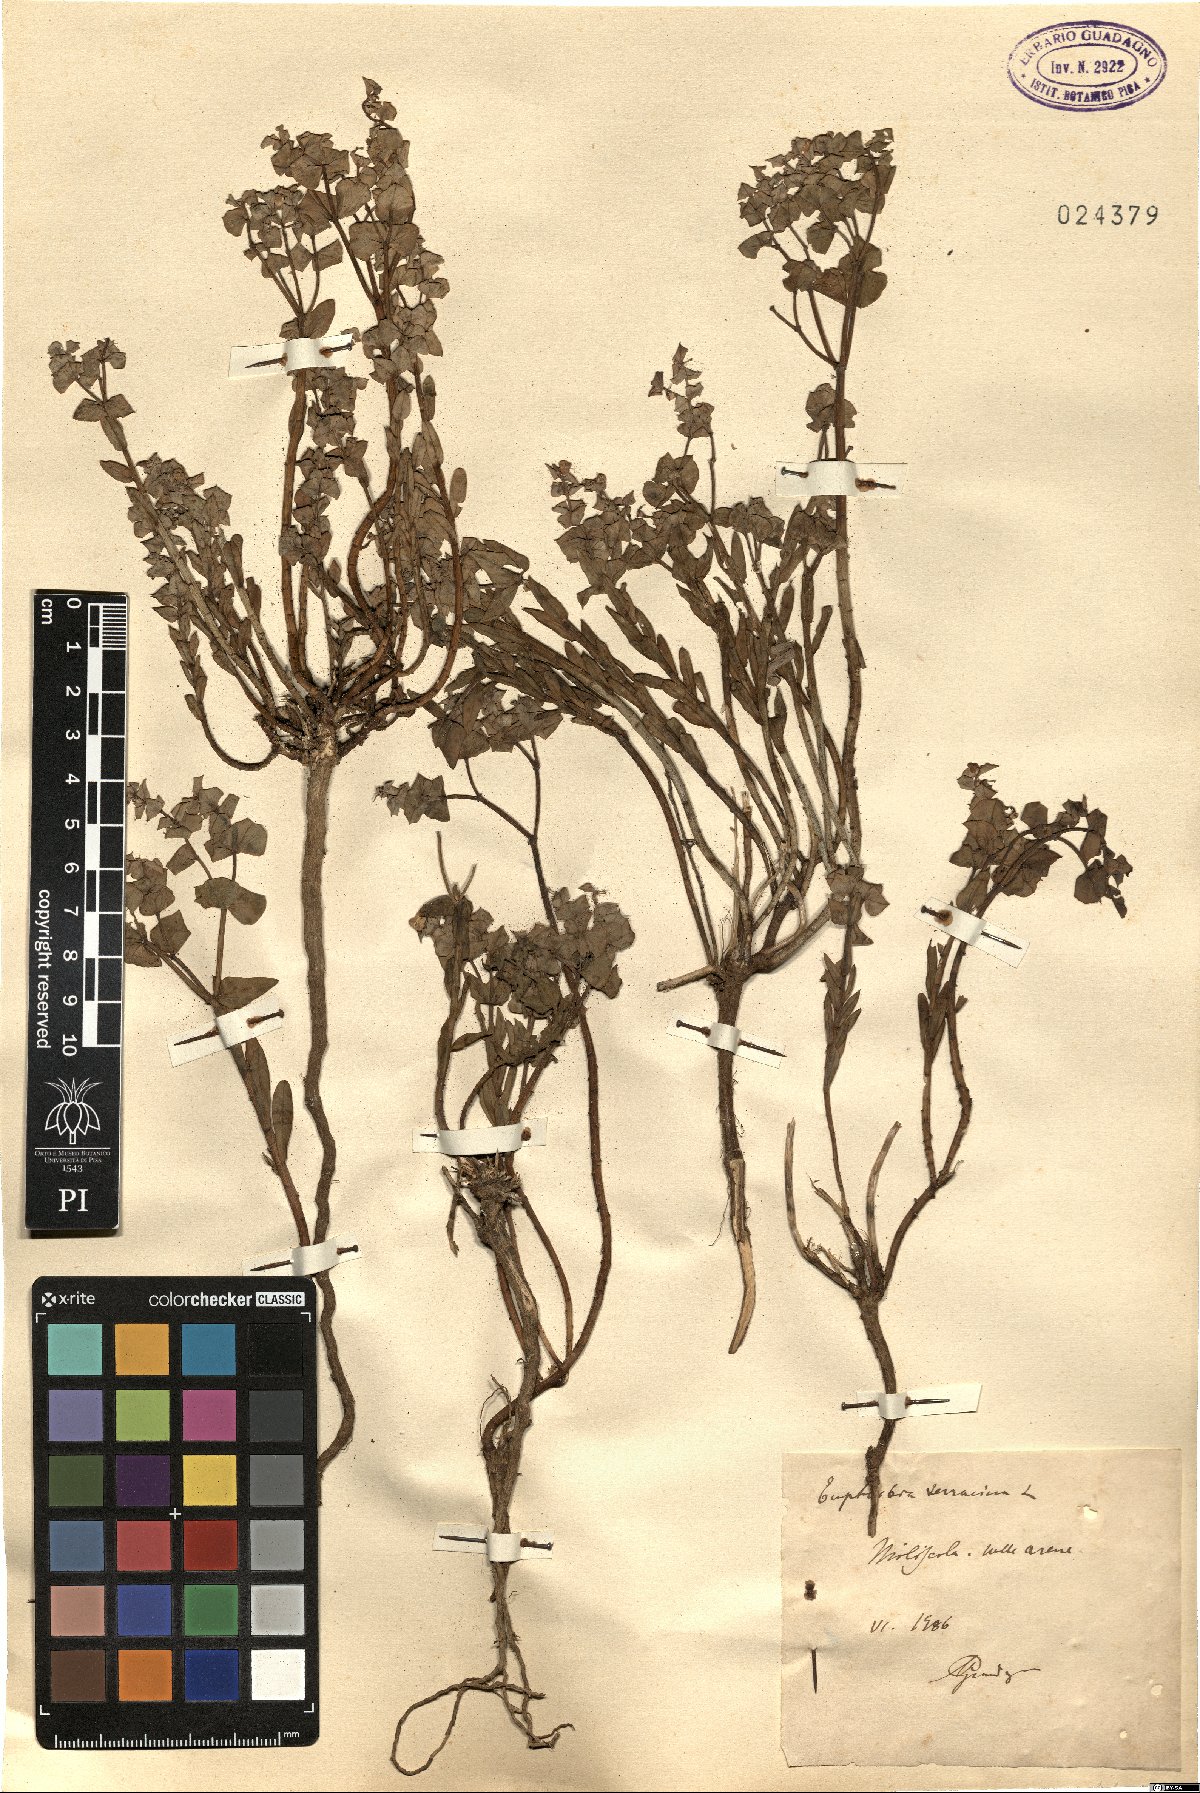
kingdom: Plantae
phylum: Tracheophyta
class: Magnoliopsida
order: Malpighiales
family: Euphorbiaceae
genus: Euphorbia
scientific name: Euphorbia terracina
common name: Geraldton carnation weed
